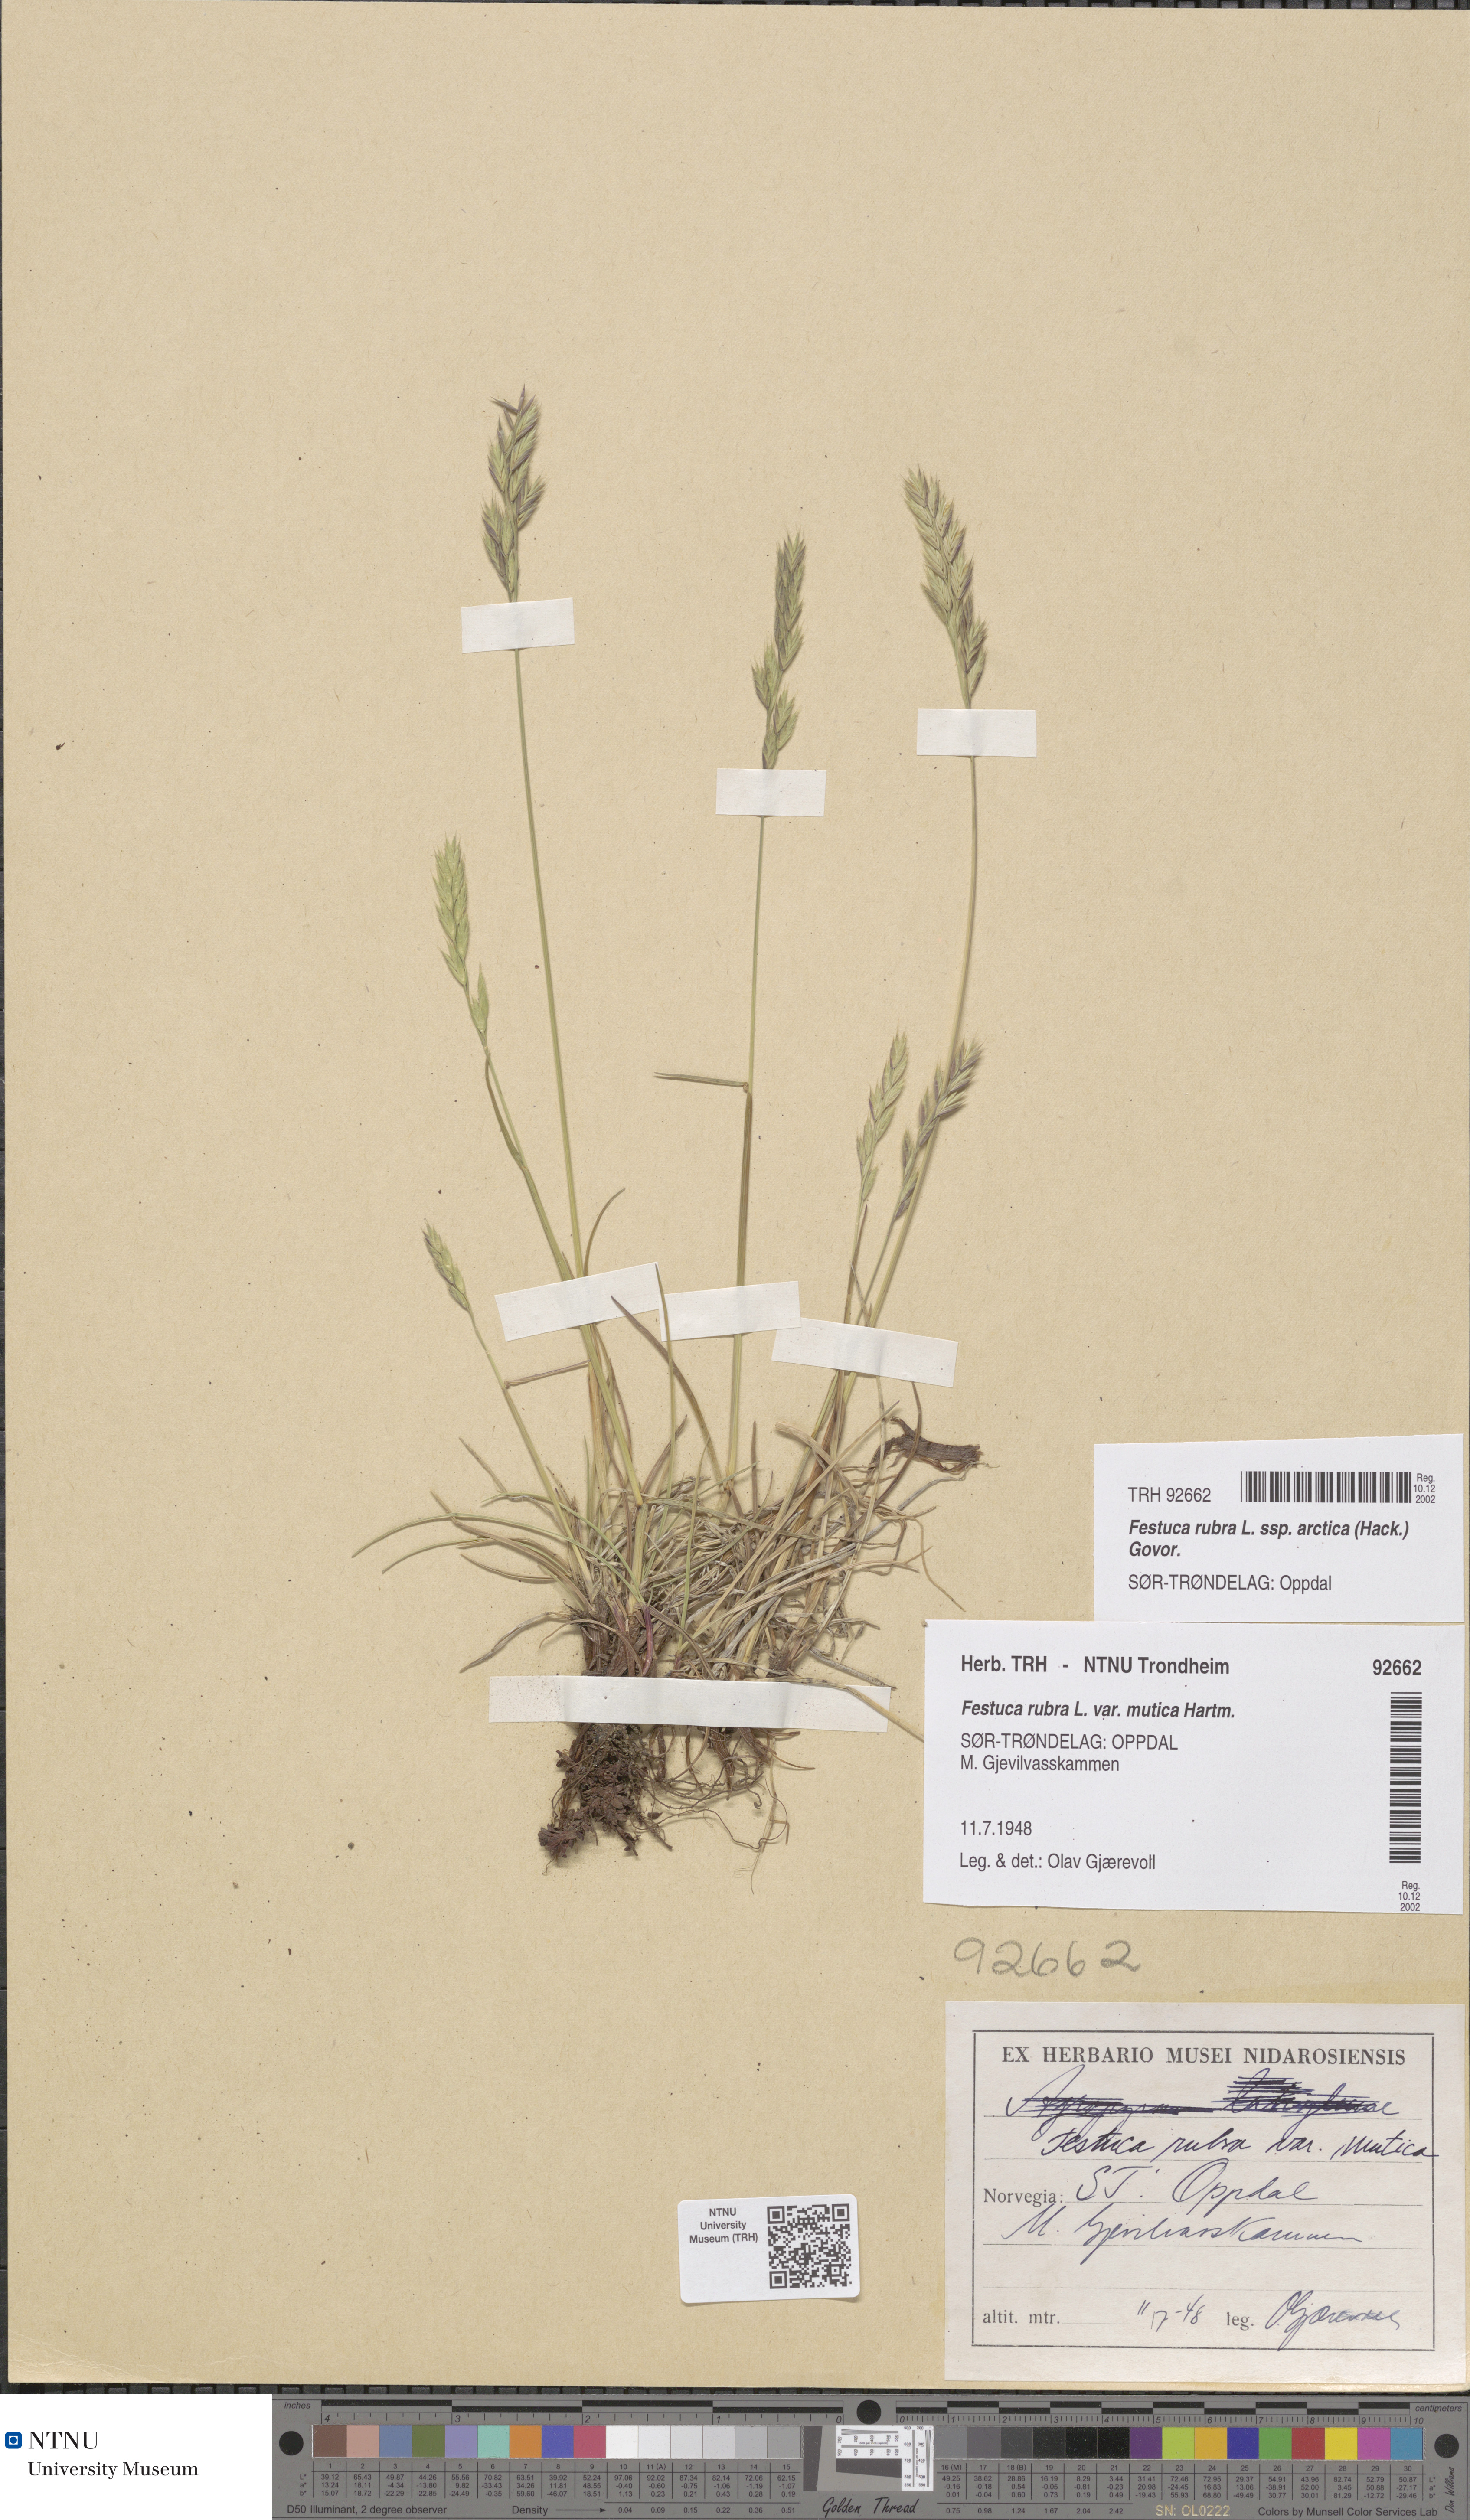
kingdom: Plantae
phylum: Tracheophyta
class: Liliopsida
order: Poales
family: Poaceae
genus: Festuca
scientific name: Festuca richardsonii
